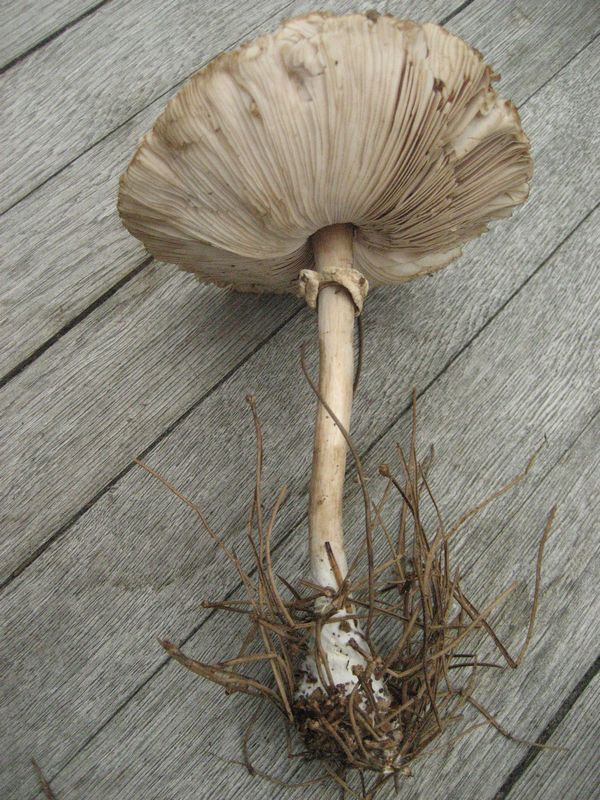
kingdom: Fungi
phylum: Basidiomycota
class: Agaricomycetes
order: Agaricales
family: Agaricaceae
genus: Leucoagaricus
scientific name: Leucoagaricus nympharum
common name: gran-silkehat
